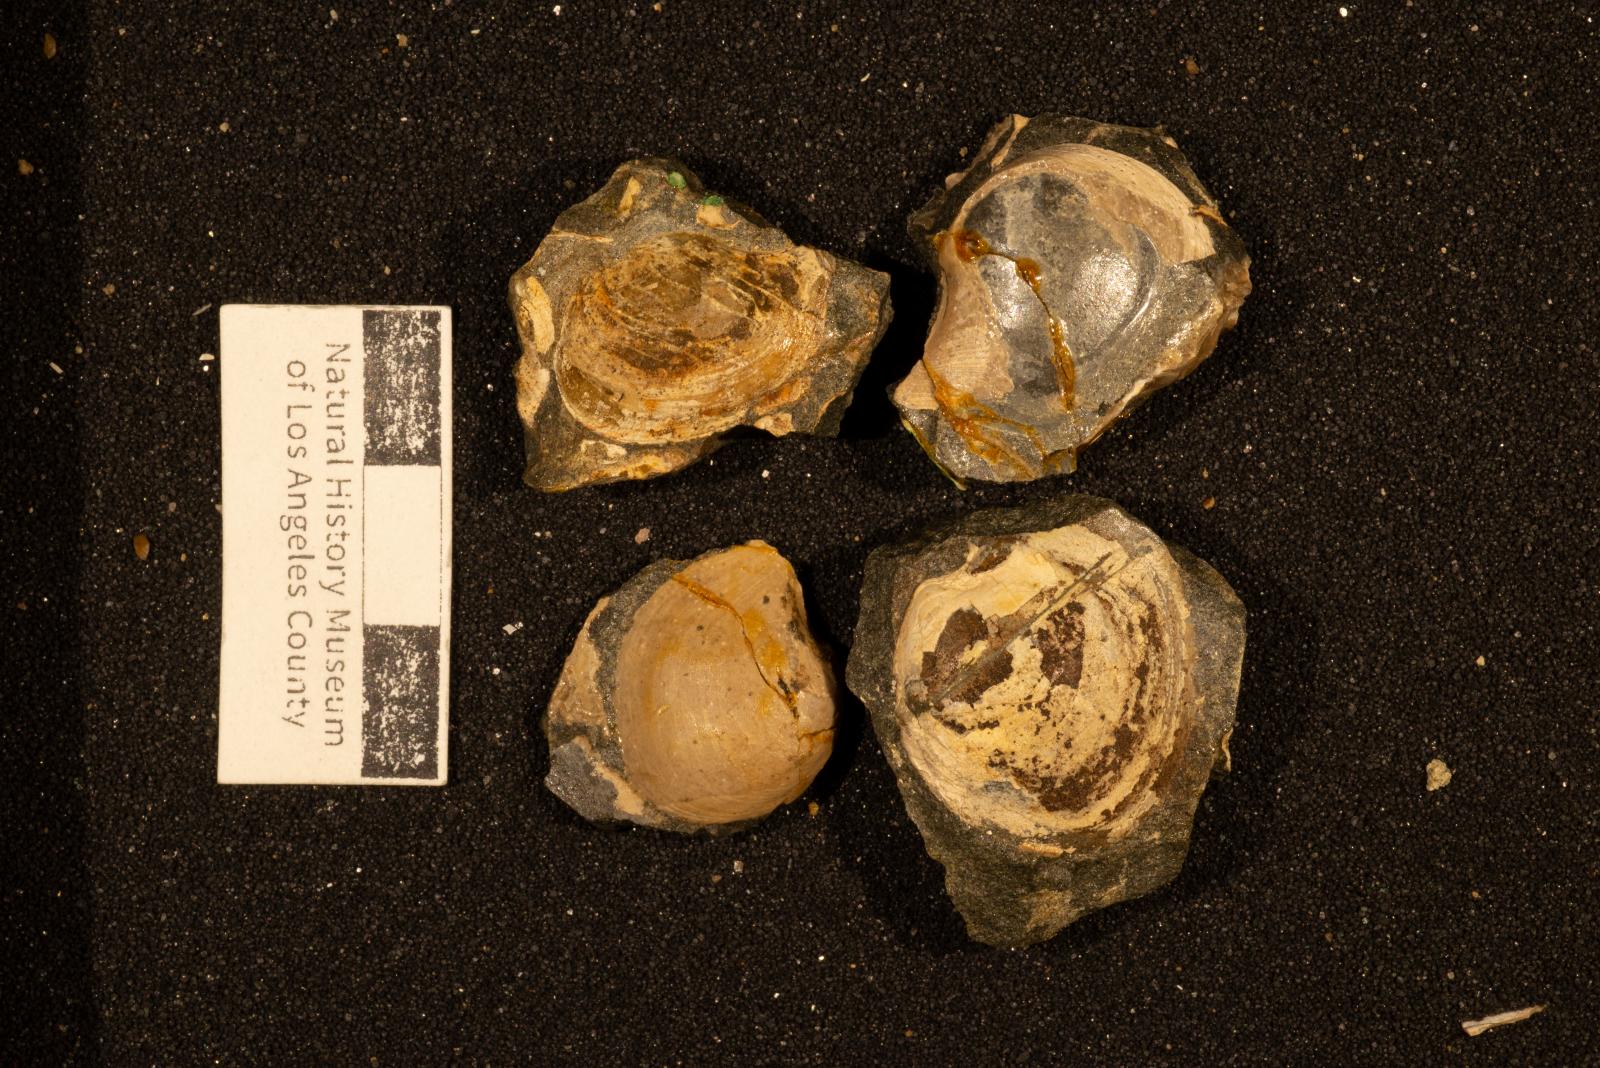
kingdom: Animalia
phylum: Mollusca
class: Bivalvia
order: Cardiida
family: Tancrediidae
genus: Meekia
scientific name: Meekia mygale
